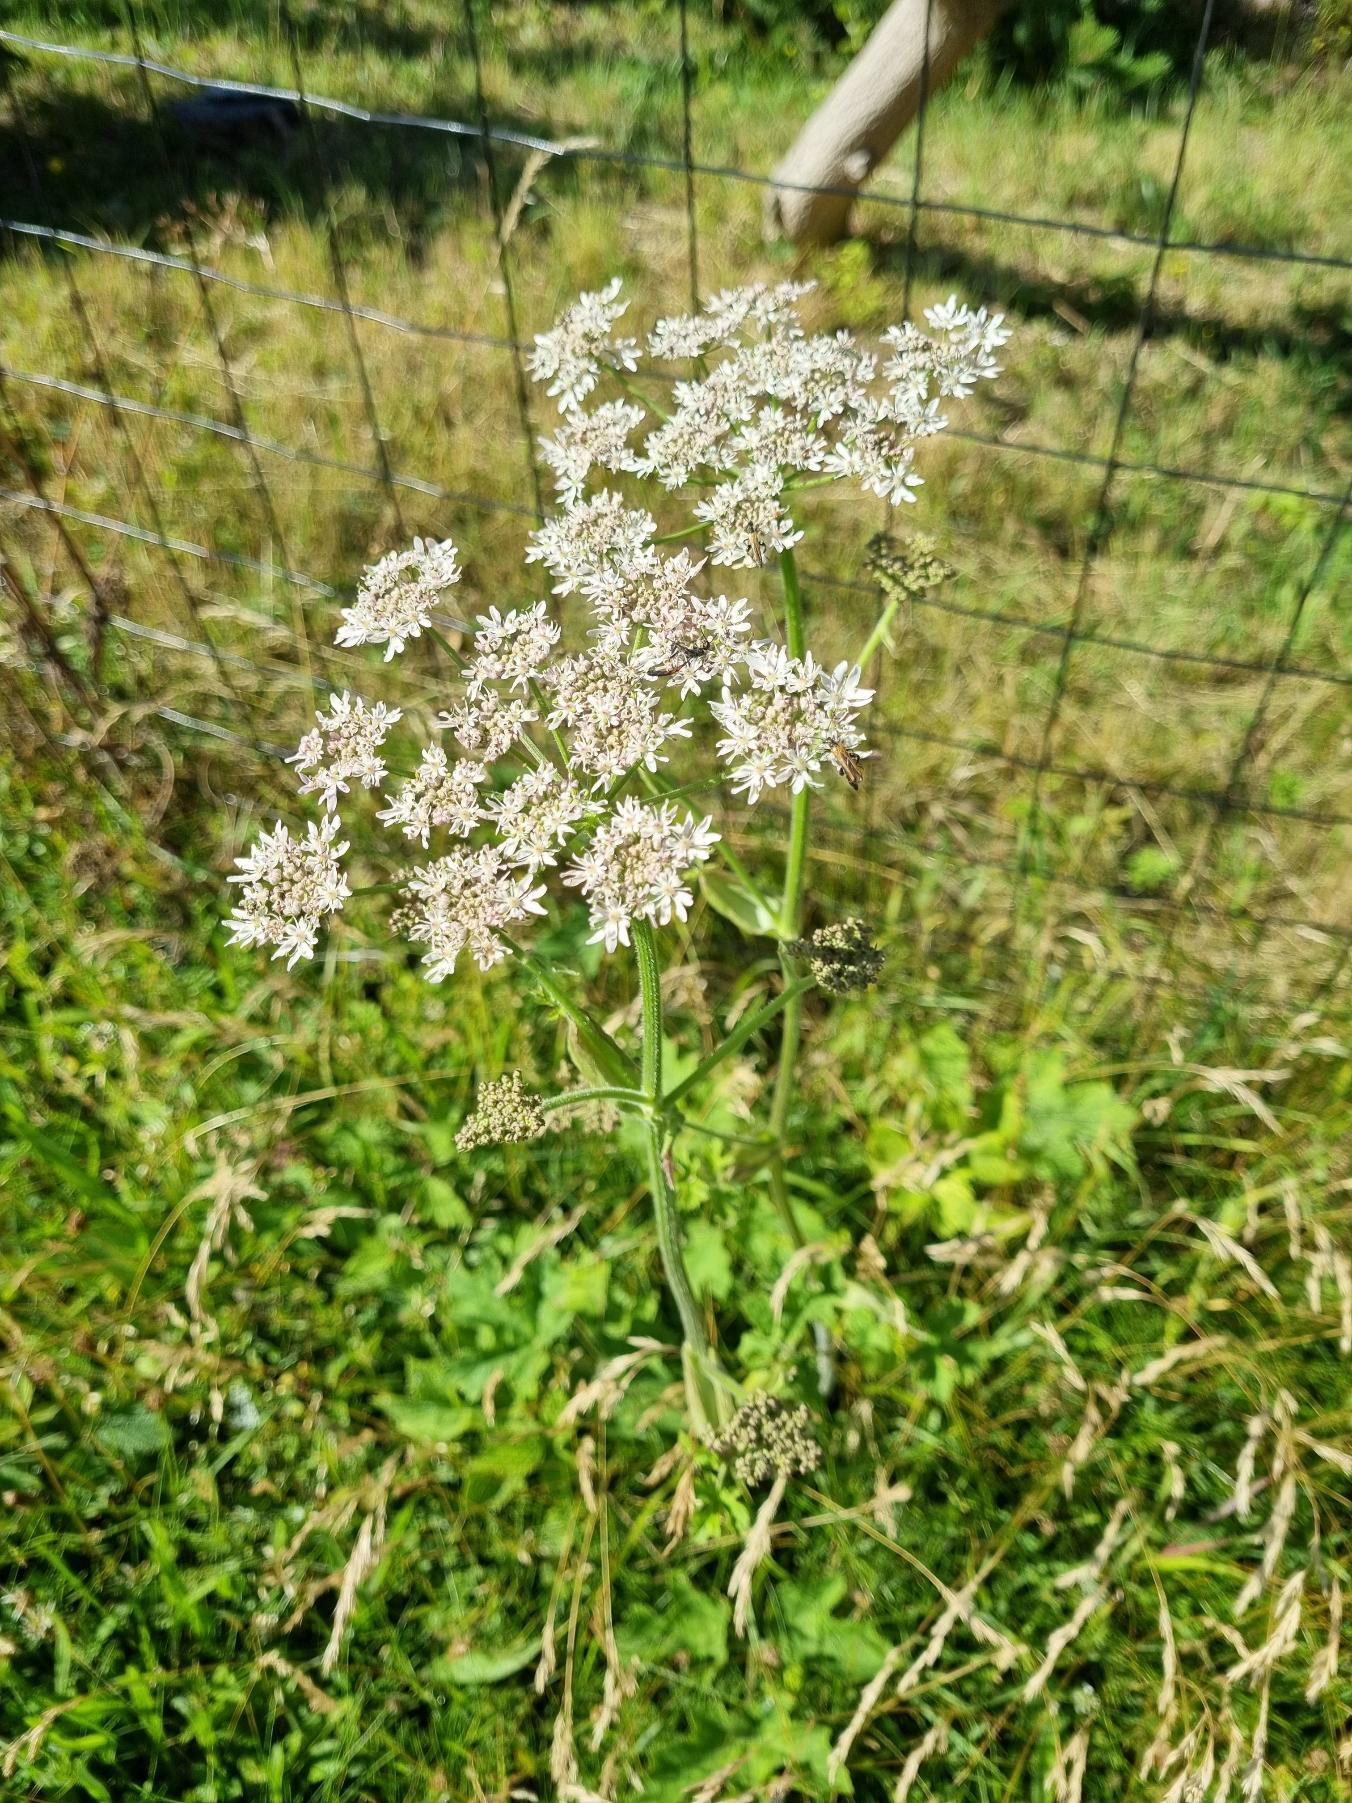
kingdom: Plantae
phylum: Tracheophyta
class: Magnoliopsida
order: Apiales
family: Apiaceae
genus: Heracleum
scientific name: Heracleum sphondylium
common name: Almindelig bjørneklo
